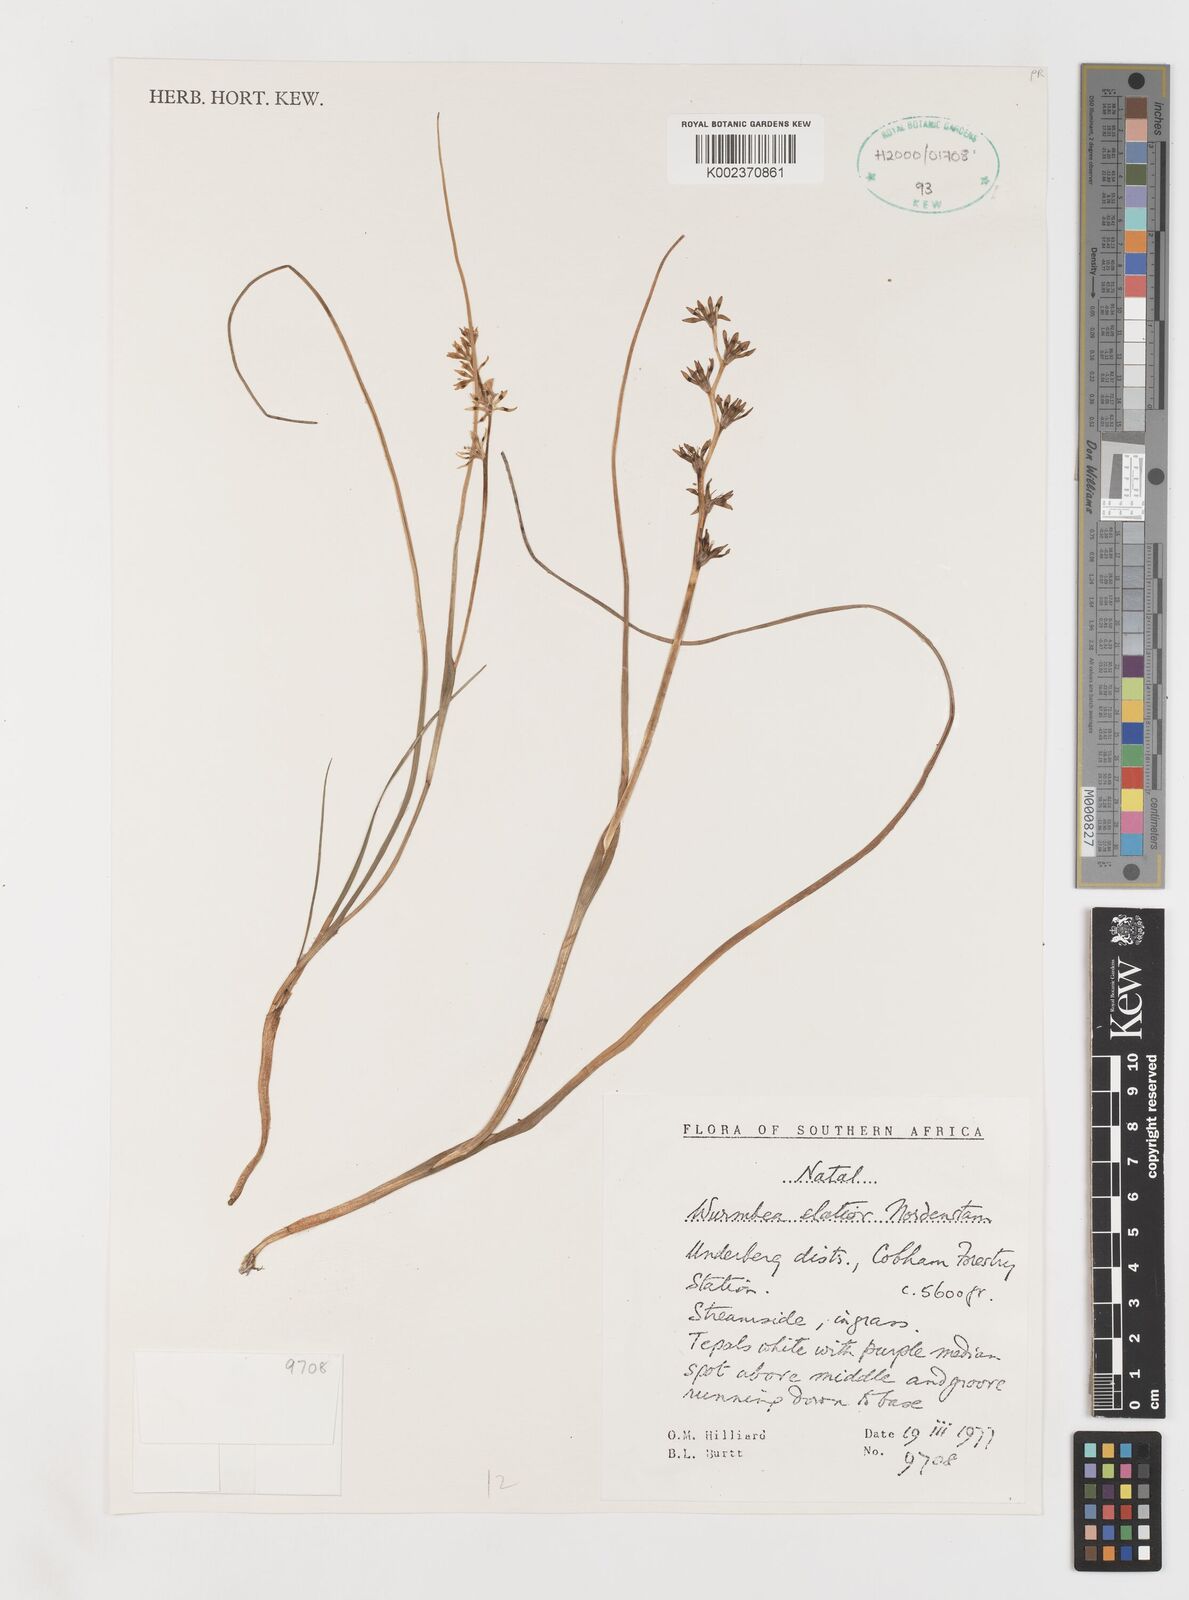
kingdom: Plantae
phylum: Tracheophyta
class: Liliopsida
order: Liliales
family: Colchicaceae
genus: Wurmbea
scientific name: Wurmbea elatior
